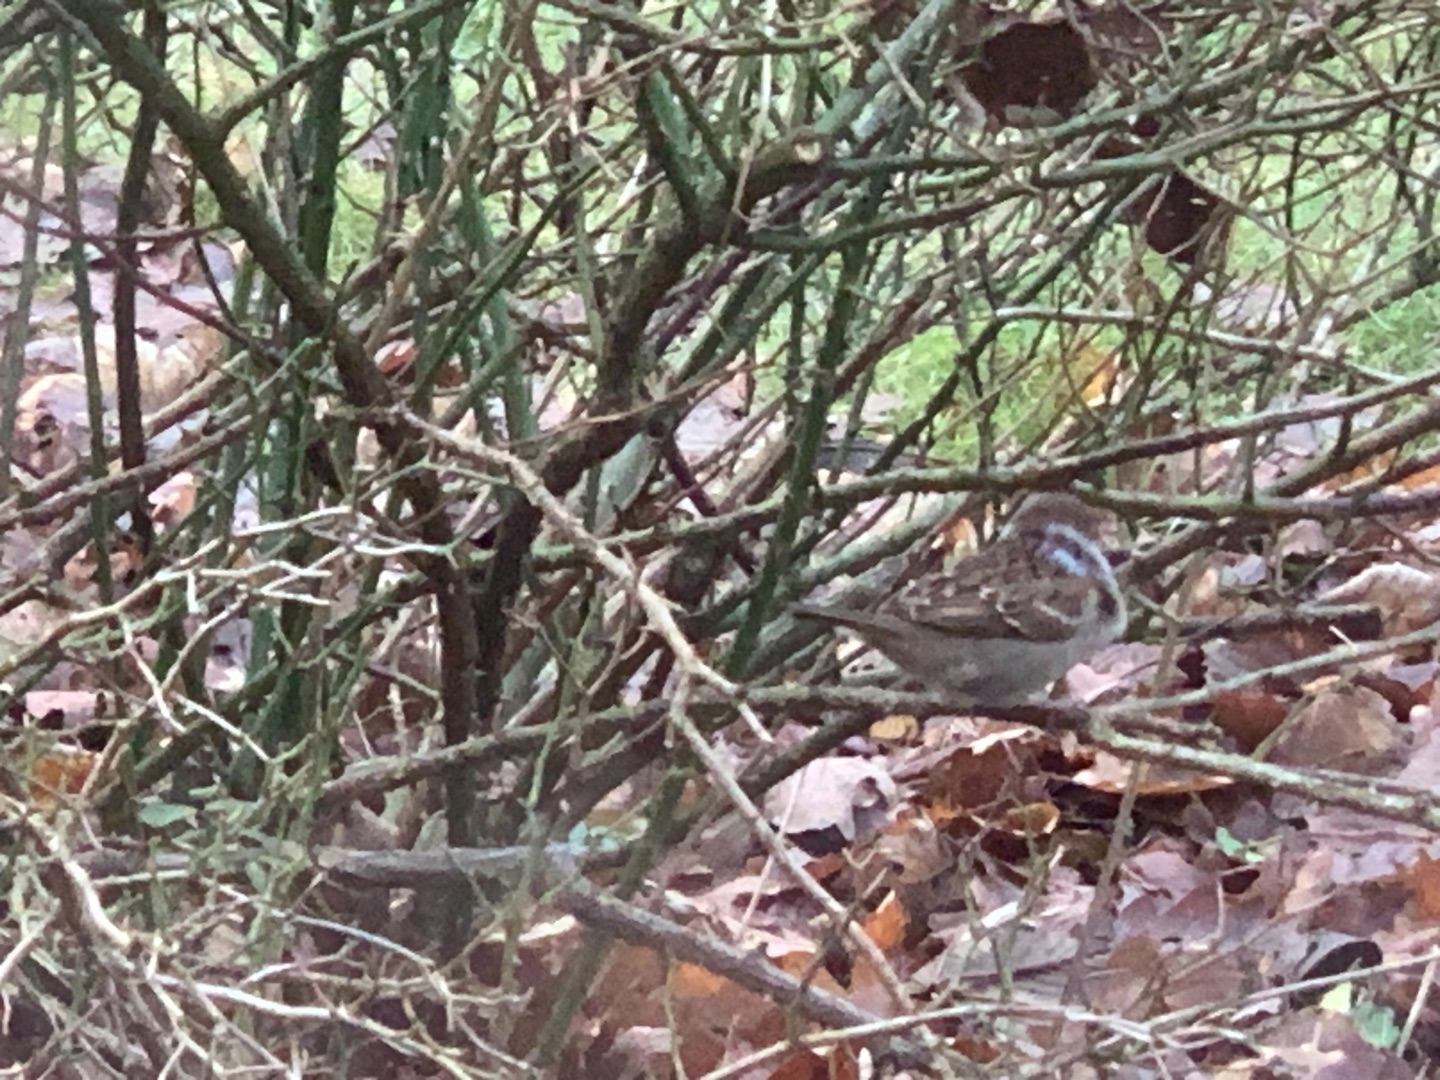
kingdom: Animalia
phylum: Chordata
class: Aves
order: Passeriformes
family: Passeridae
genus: Passer
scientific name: Passer montanus
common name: Skovspurv
